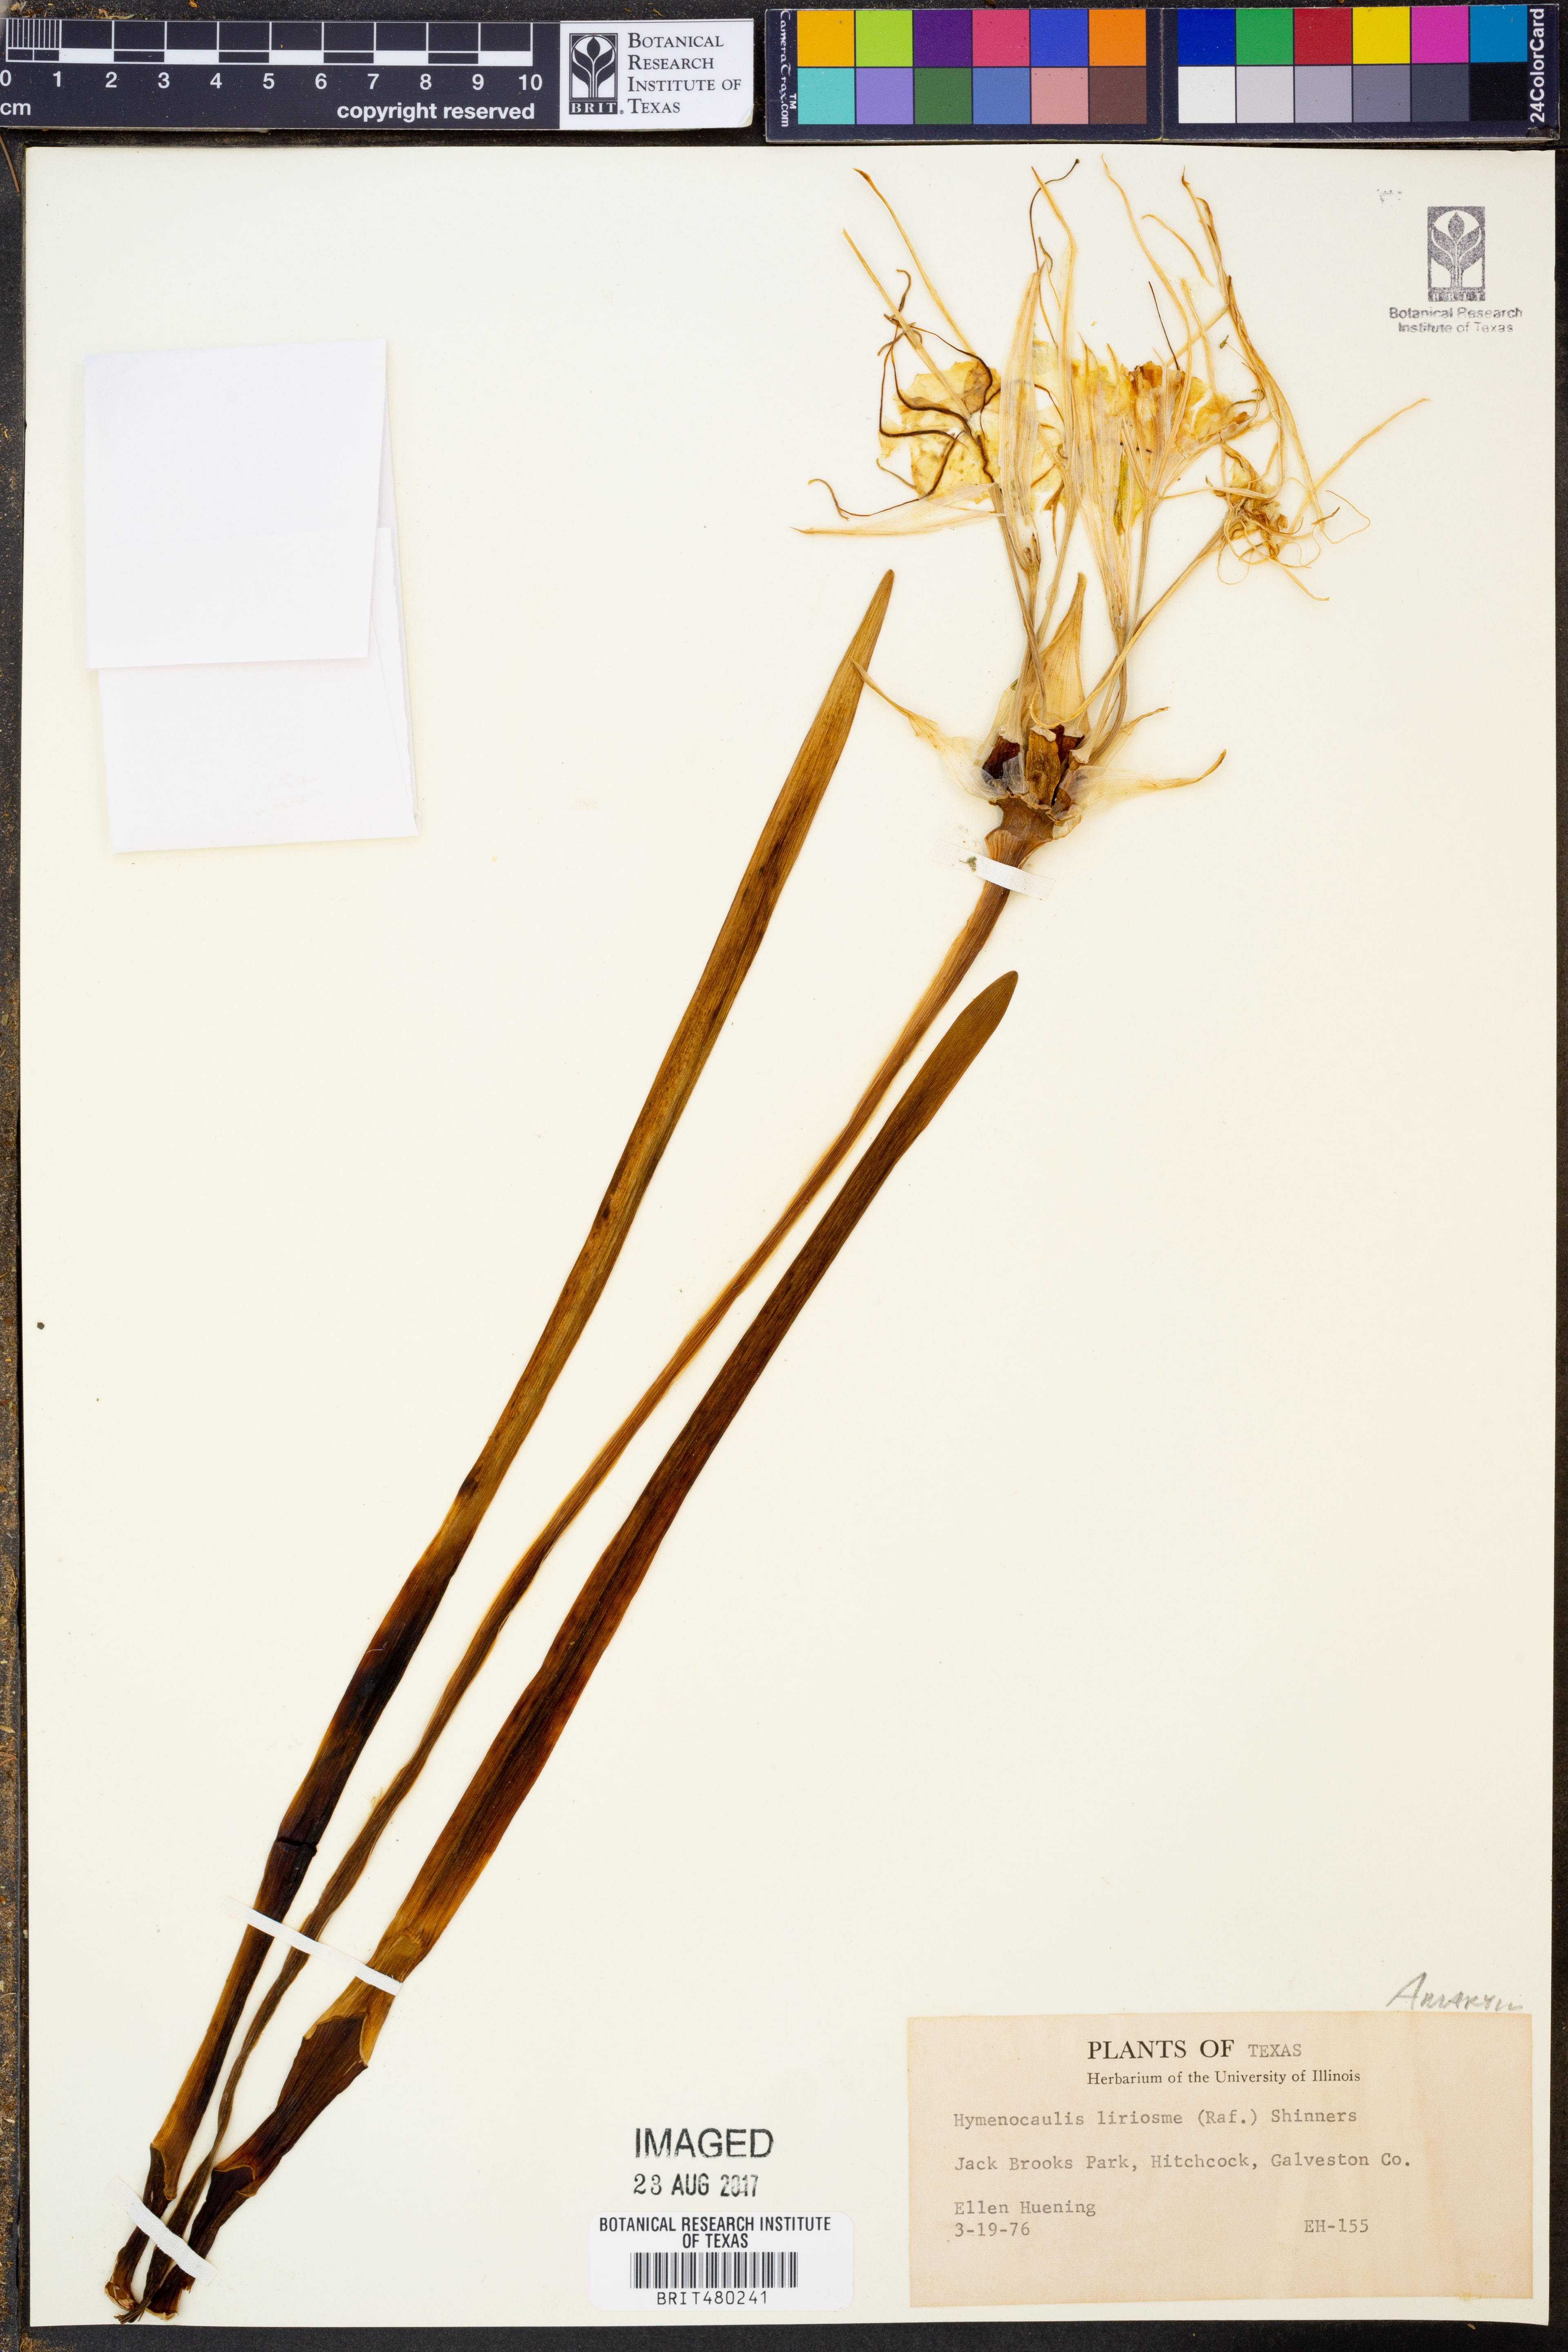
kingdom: Plantae
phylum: Tracheophyta
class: Liliopsida
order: Asparagales
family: Amaryllidaceae
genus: Hymenocallis
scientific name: Hymenocallis liriosme
